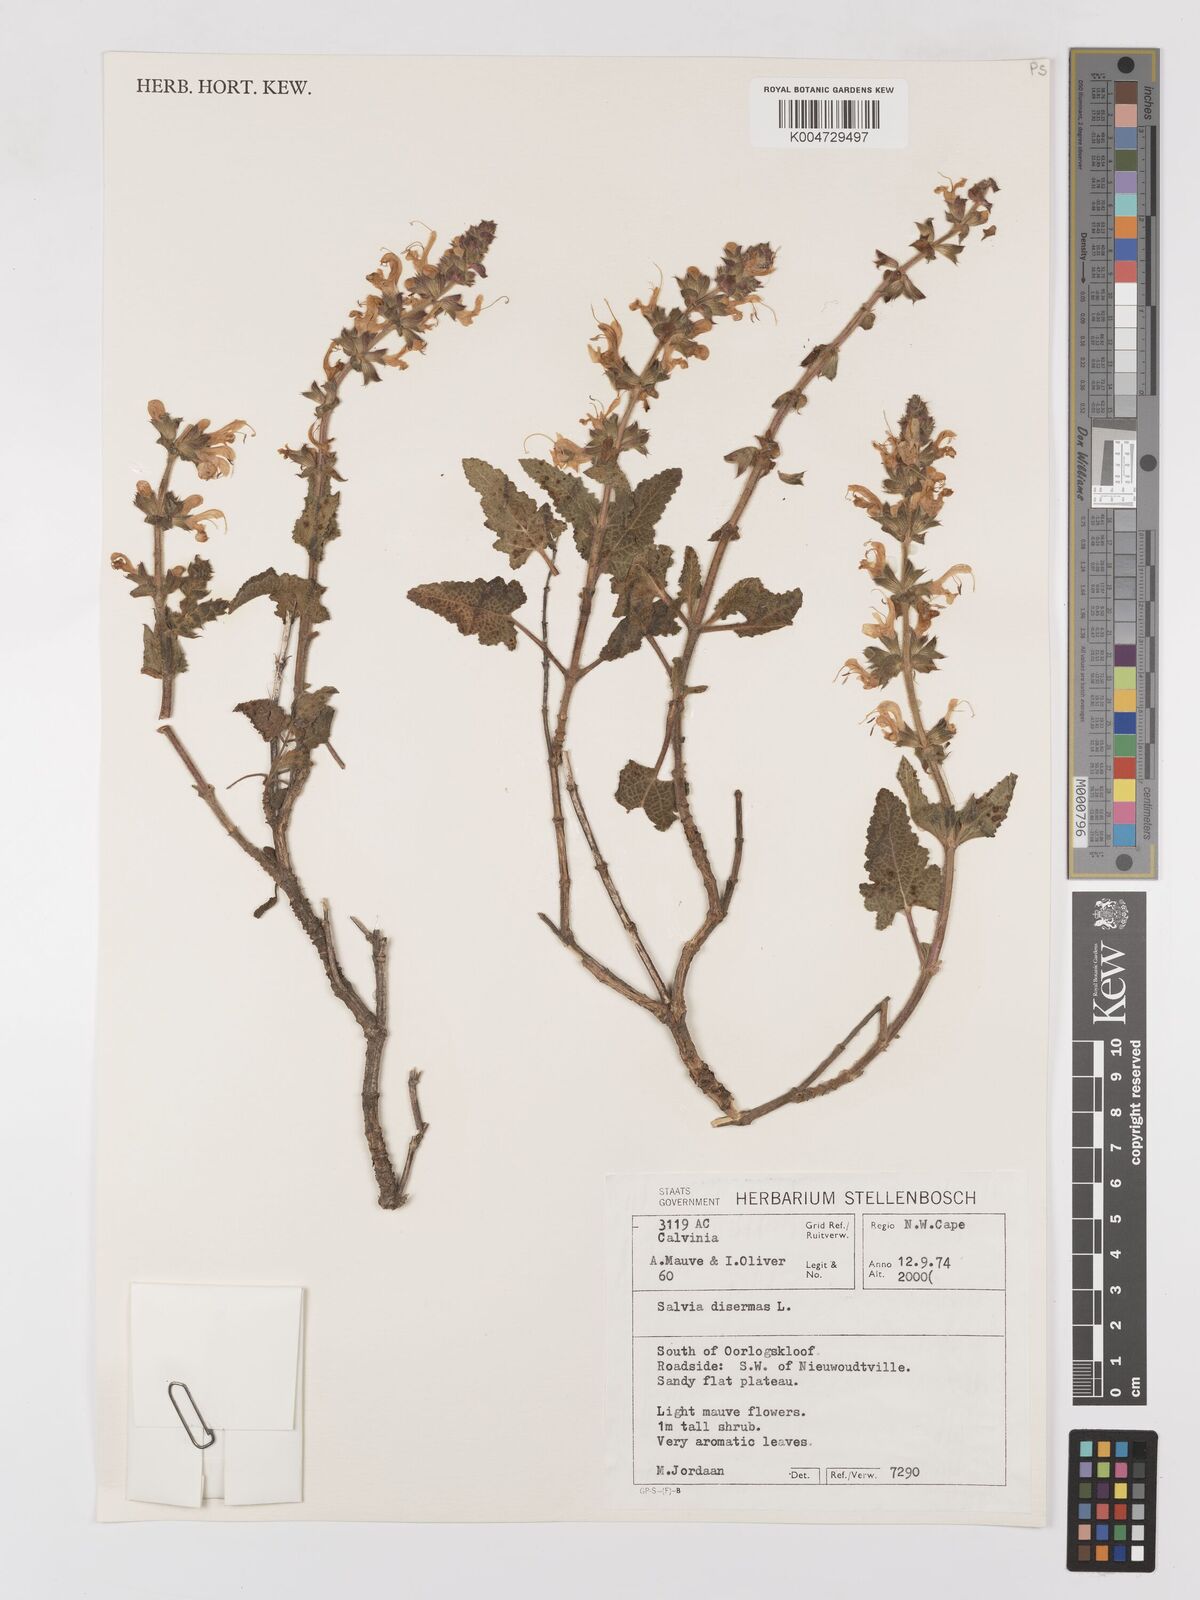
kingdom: Plantae
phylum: Tracheophyta
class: Magnoliopsida
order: Lamiales
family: Lamiaceae
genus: Salvia
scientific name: Salvia
